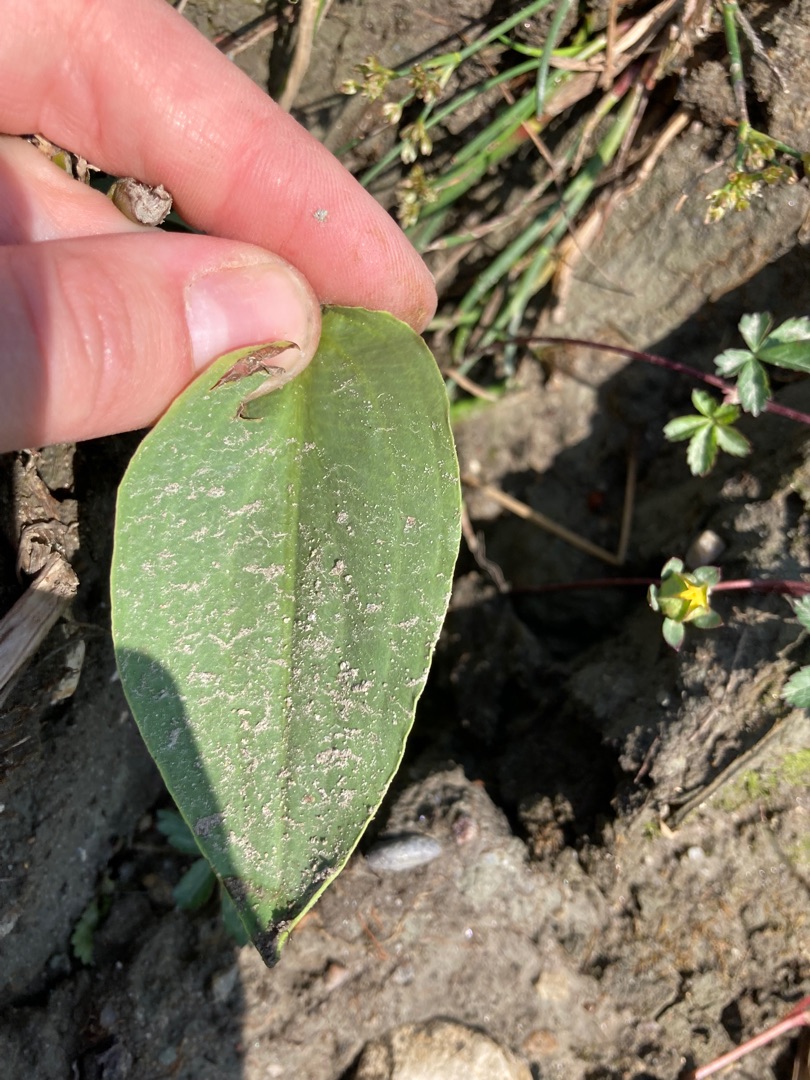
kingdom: Plantae
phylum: Tracheophyta
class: Liliopsida
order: Alismatales
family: Alismataceae
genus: Alisma
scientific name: Alisma plantago-aquatica
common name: Vejbred-skeblad
